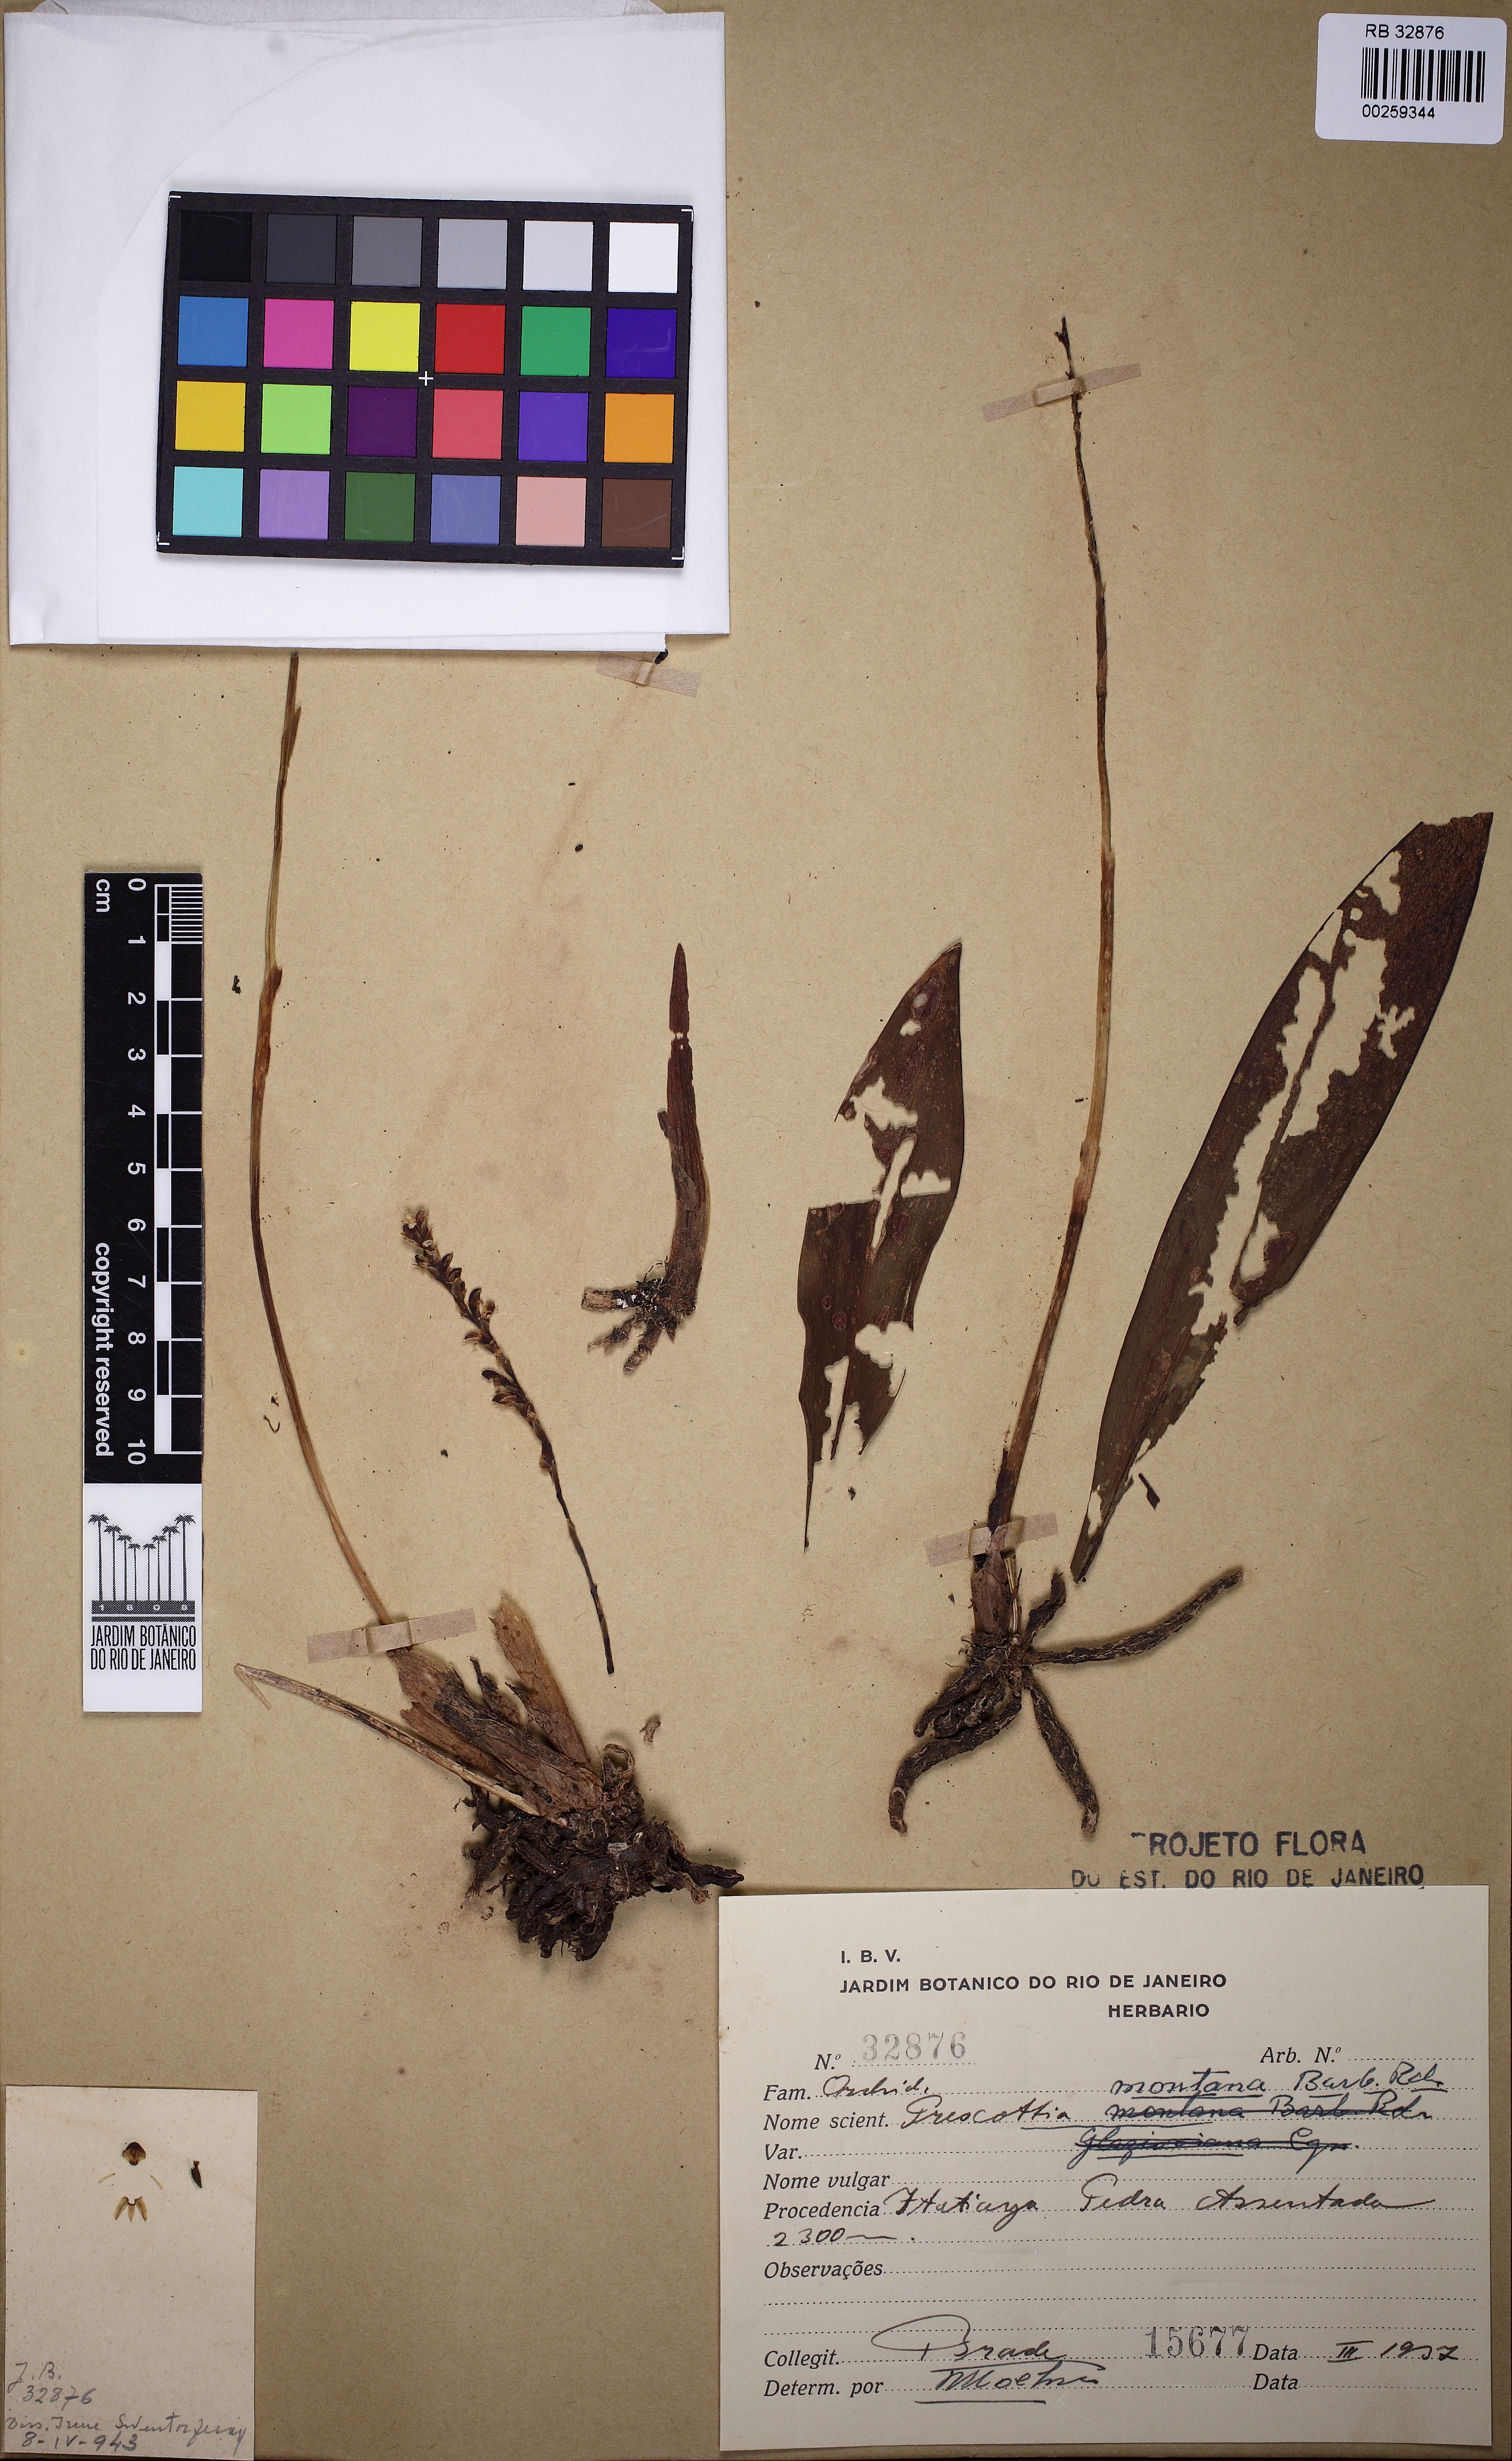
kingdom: Plantae
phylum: Tracheophyta
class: Liliopsida
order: Asparagales
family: Orchidaceae
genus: Prescottia
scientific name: Prescottia montana
